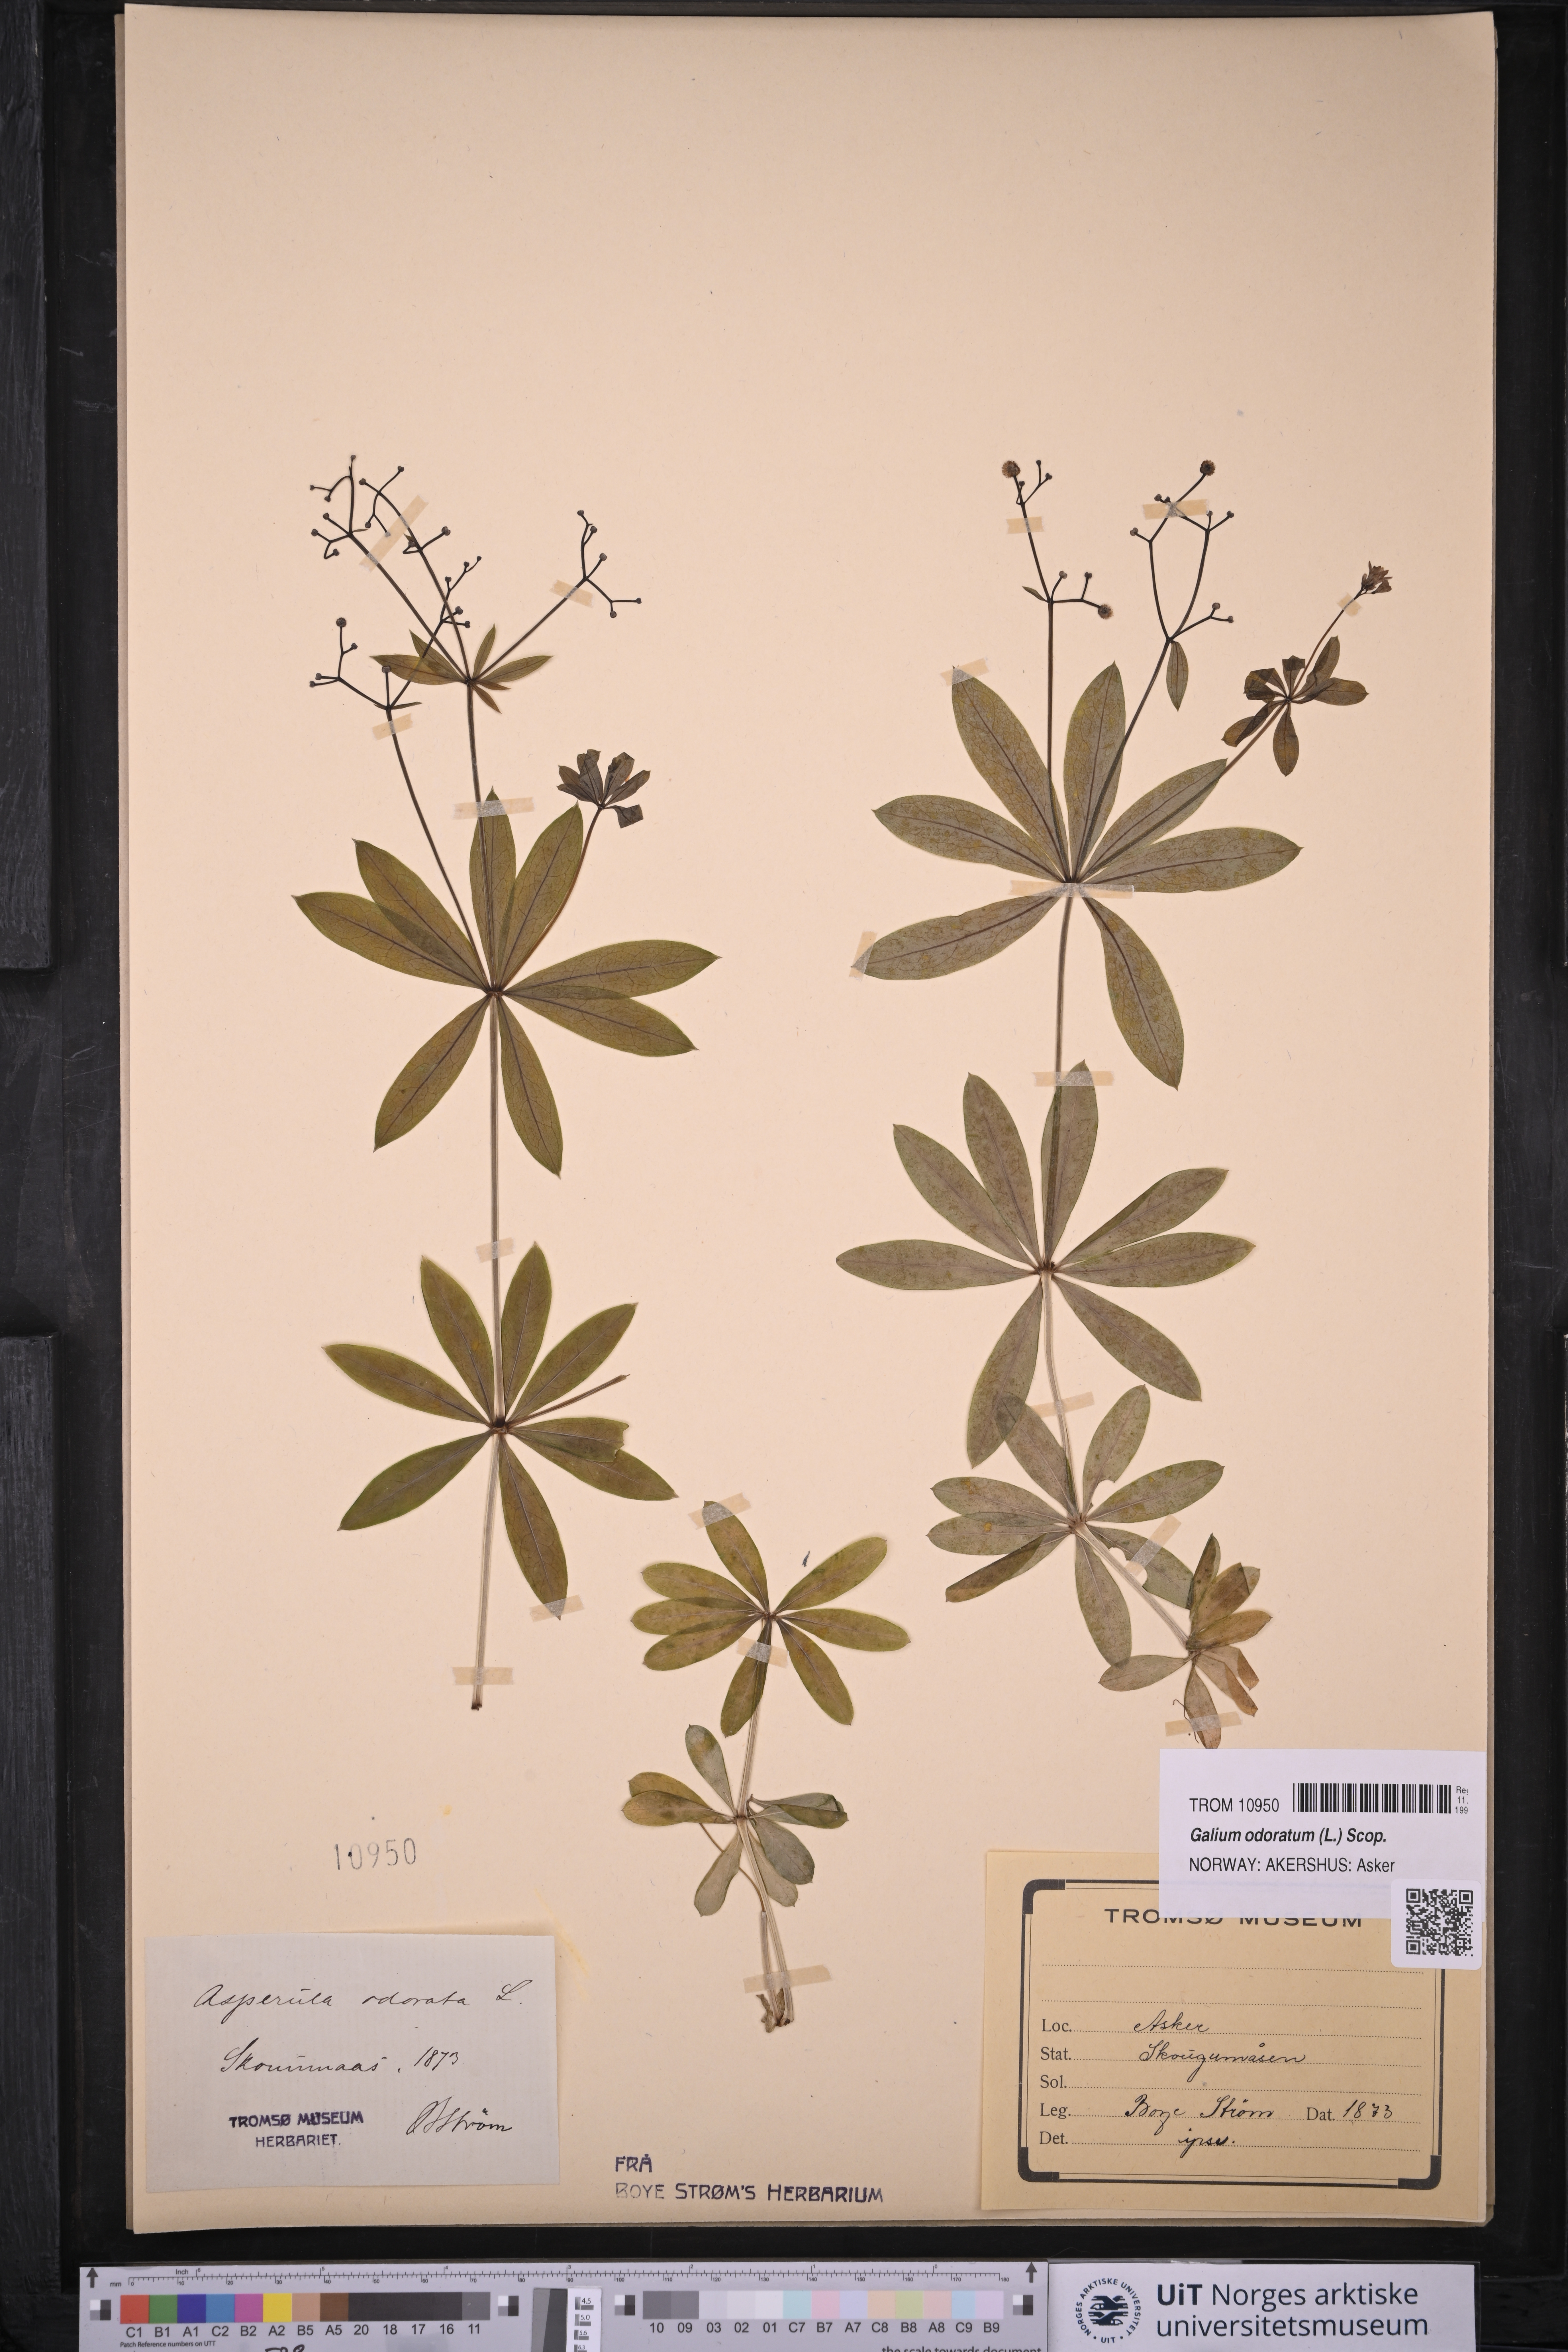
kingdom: Plantae
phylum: Tracheophyta
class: Magnoliopsida
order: Gentianales
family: Rubiaceae
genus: Galium
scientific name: Galium odoratum
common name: Sweet woodruff
